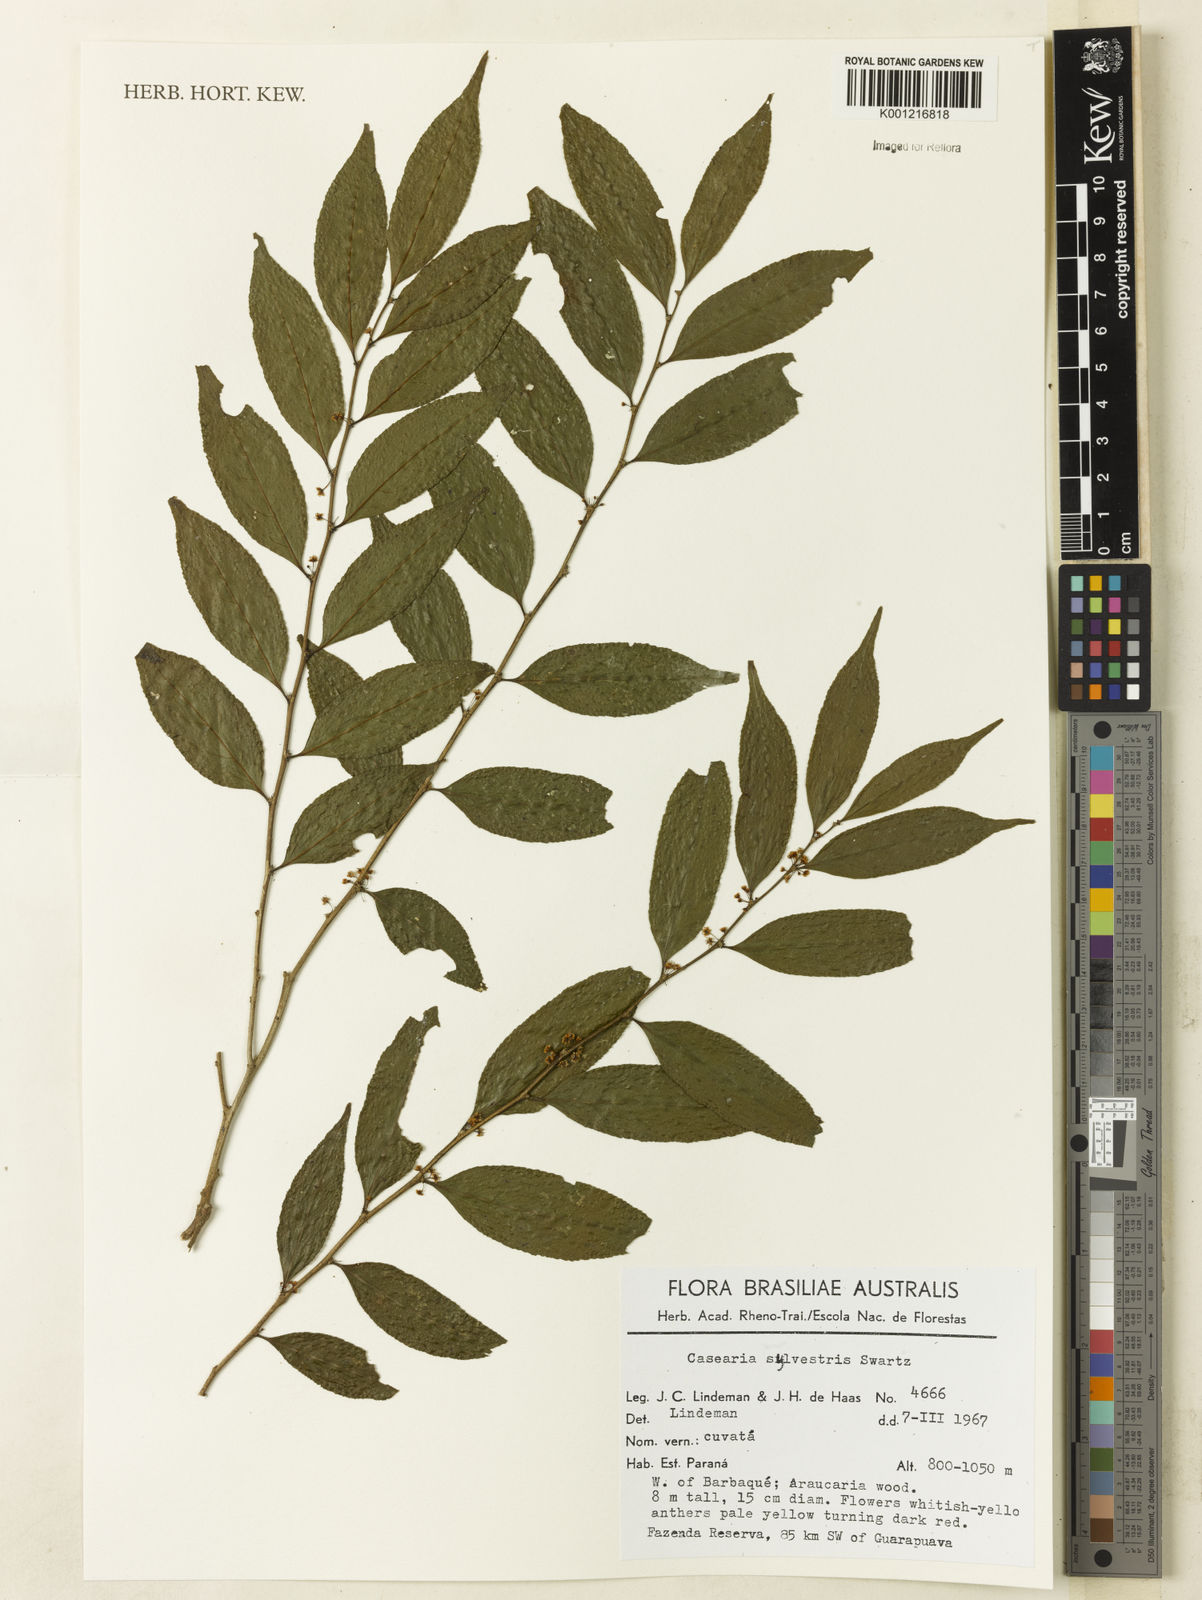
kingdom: Plantae
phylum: Tracheophyta
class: Magnoliopsida
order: Malpighiales
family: Salicaceae
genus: Casearia
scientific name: Casearia sylvestris
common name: Wild sage
